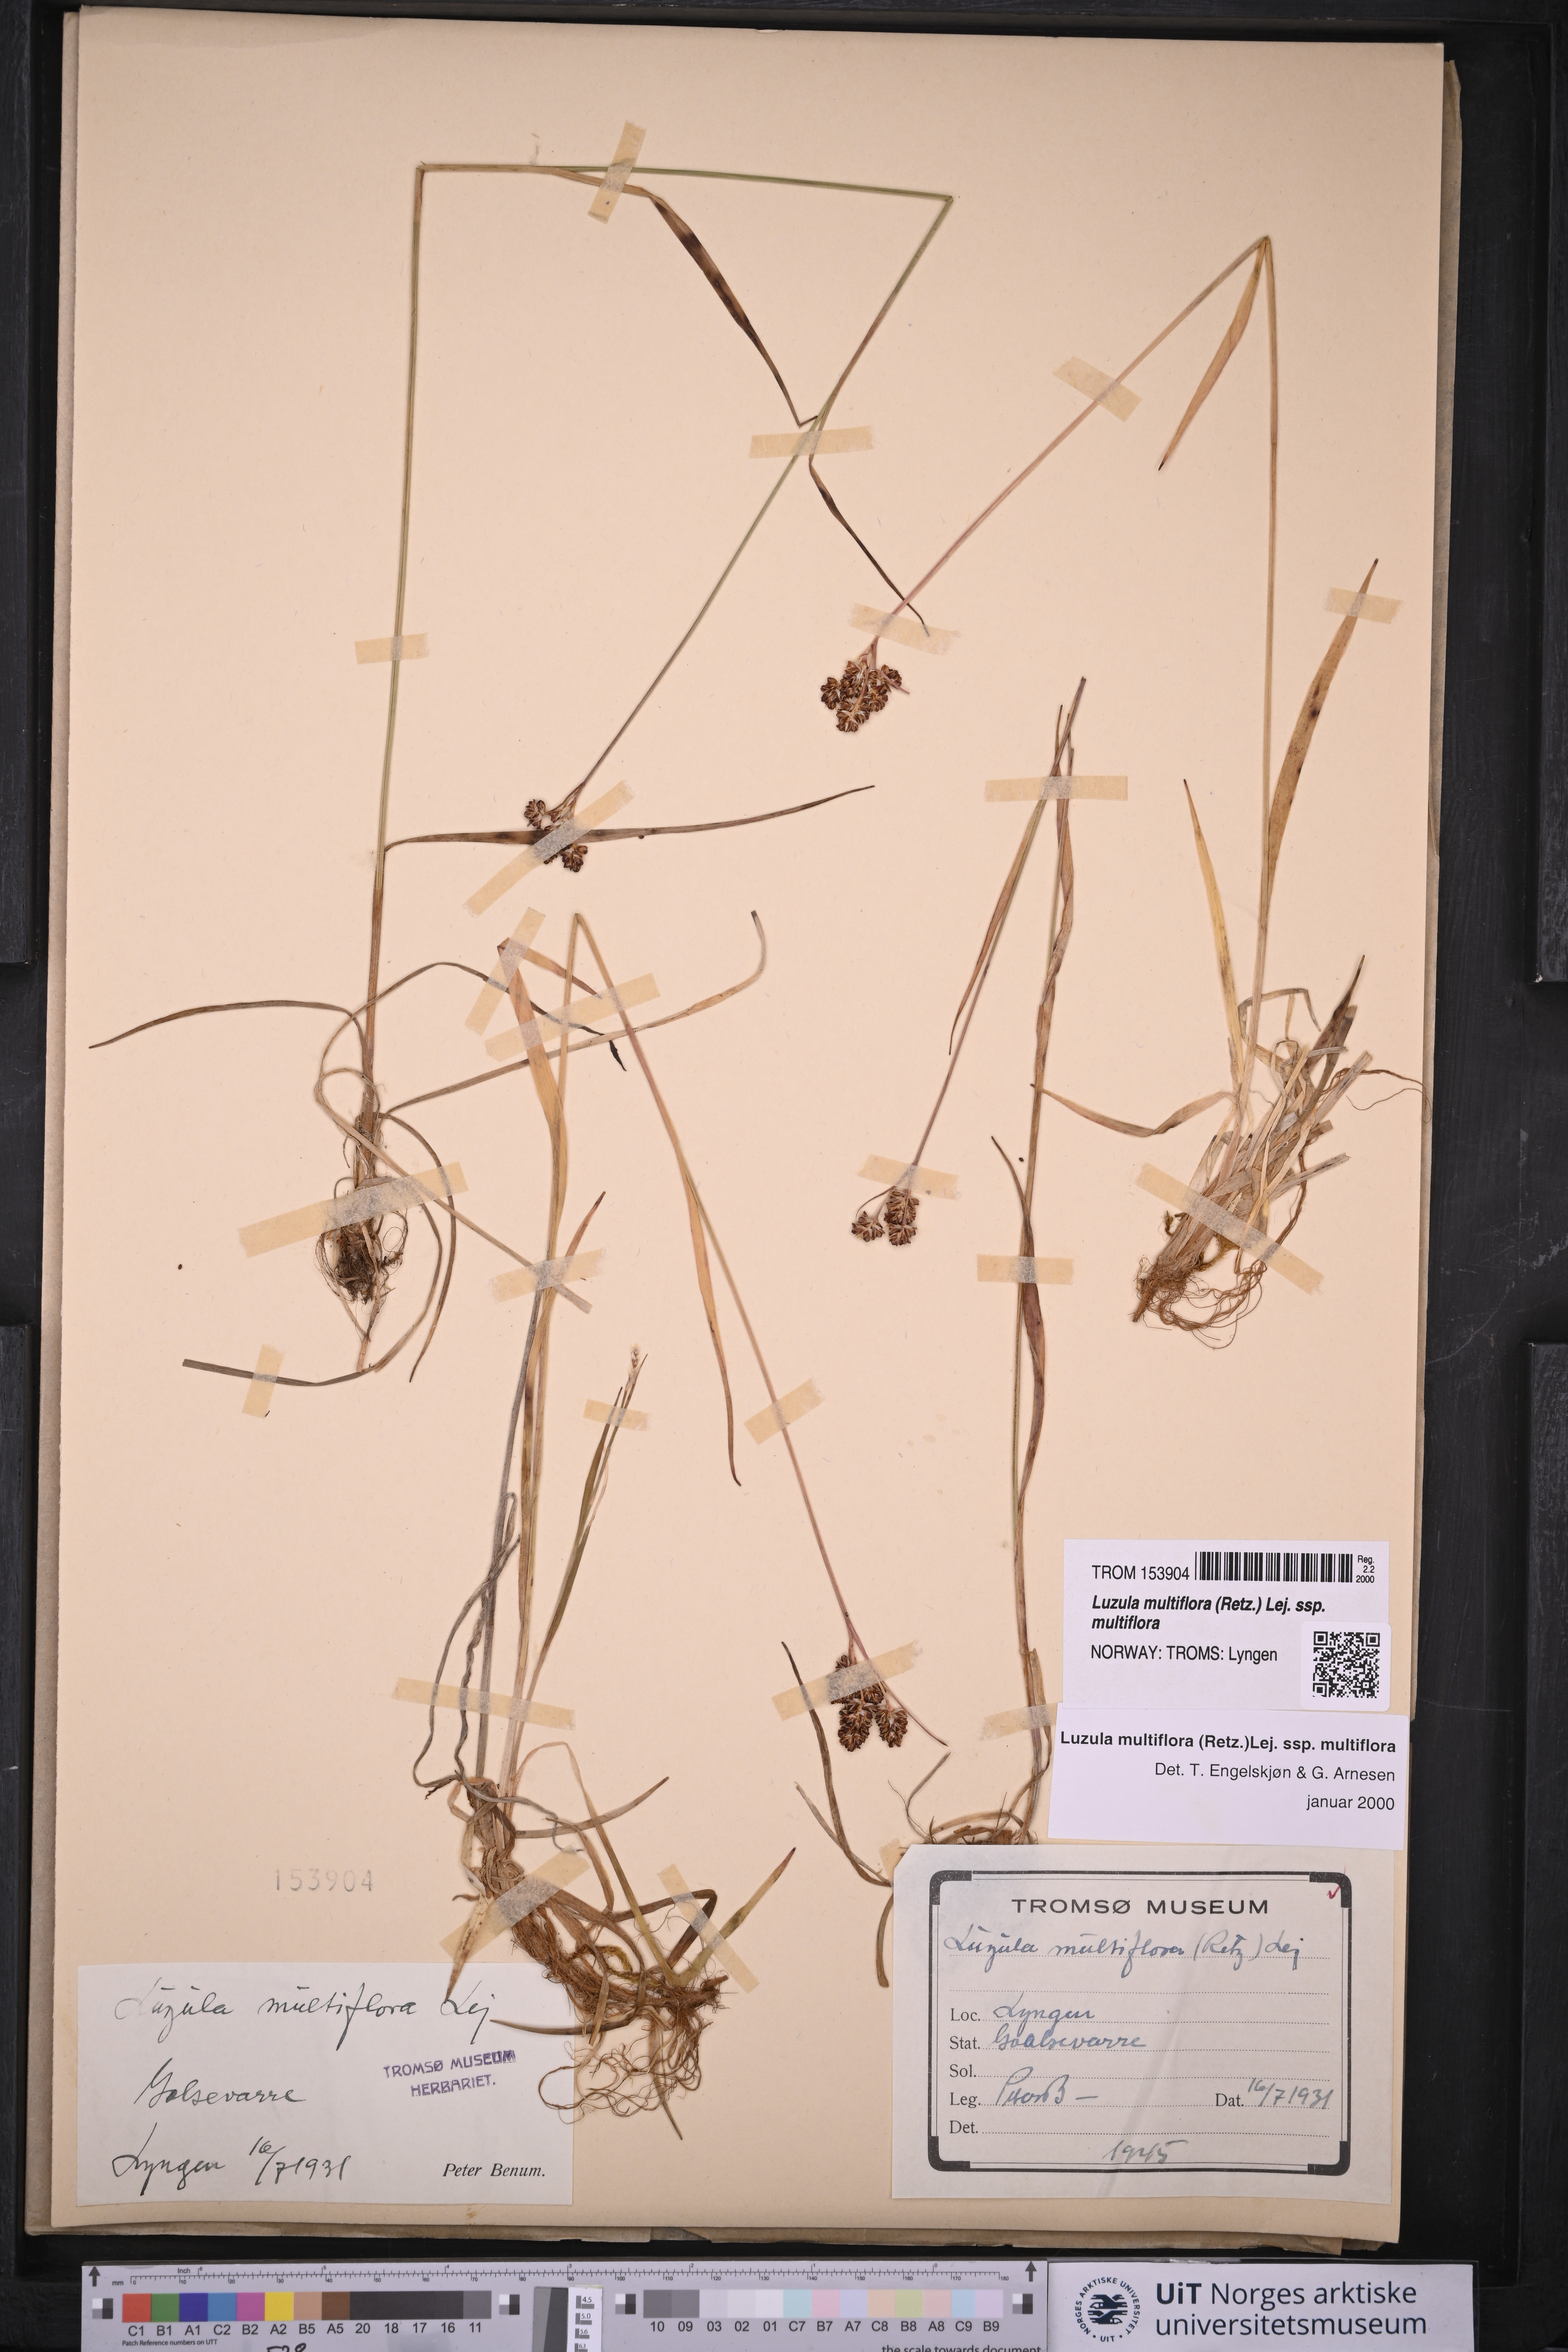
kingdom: Plantae
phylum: Tracheophyta
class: Liliopsida
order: Poales
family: Juncaceae
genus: Luzula
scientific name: Luzula multiflora
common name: Heath wood-rush
